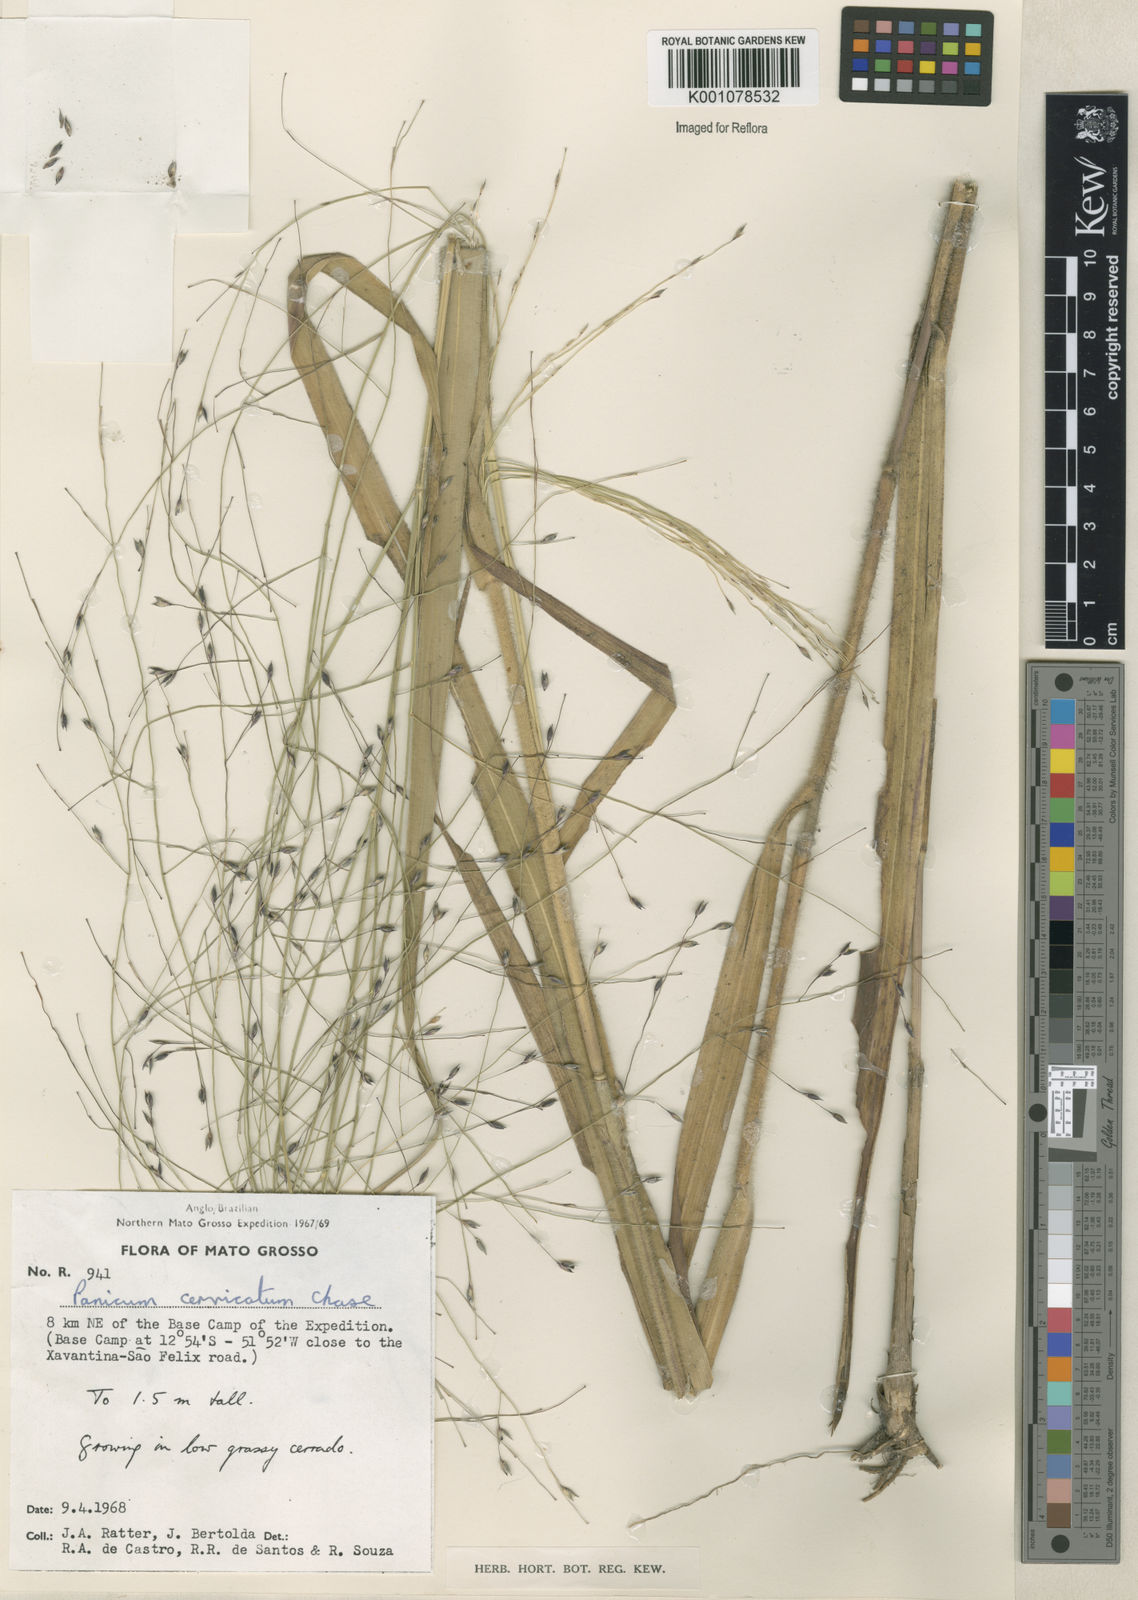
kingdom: Plantae
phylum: Tracheophyta
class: Liliopsida
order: Poales
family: Poaceae
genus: Panicum
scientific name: Panicum ligulare
